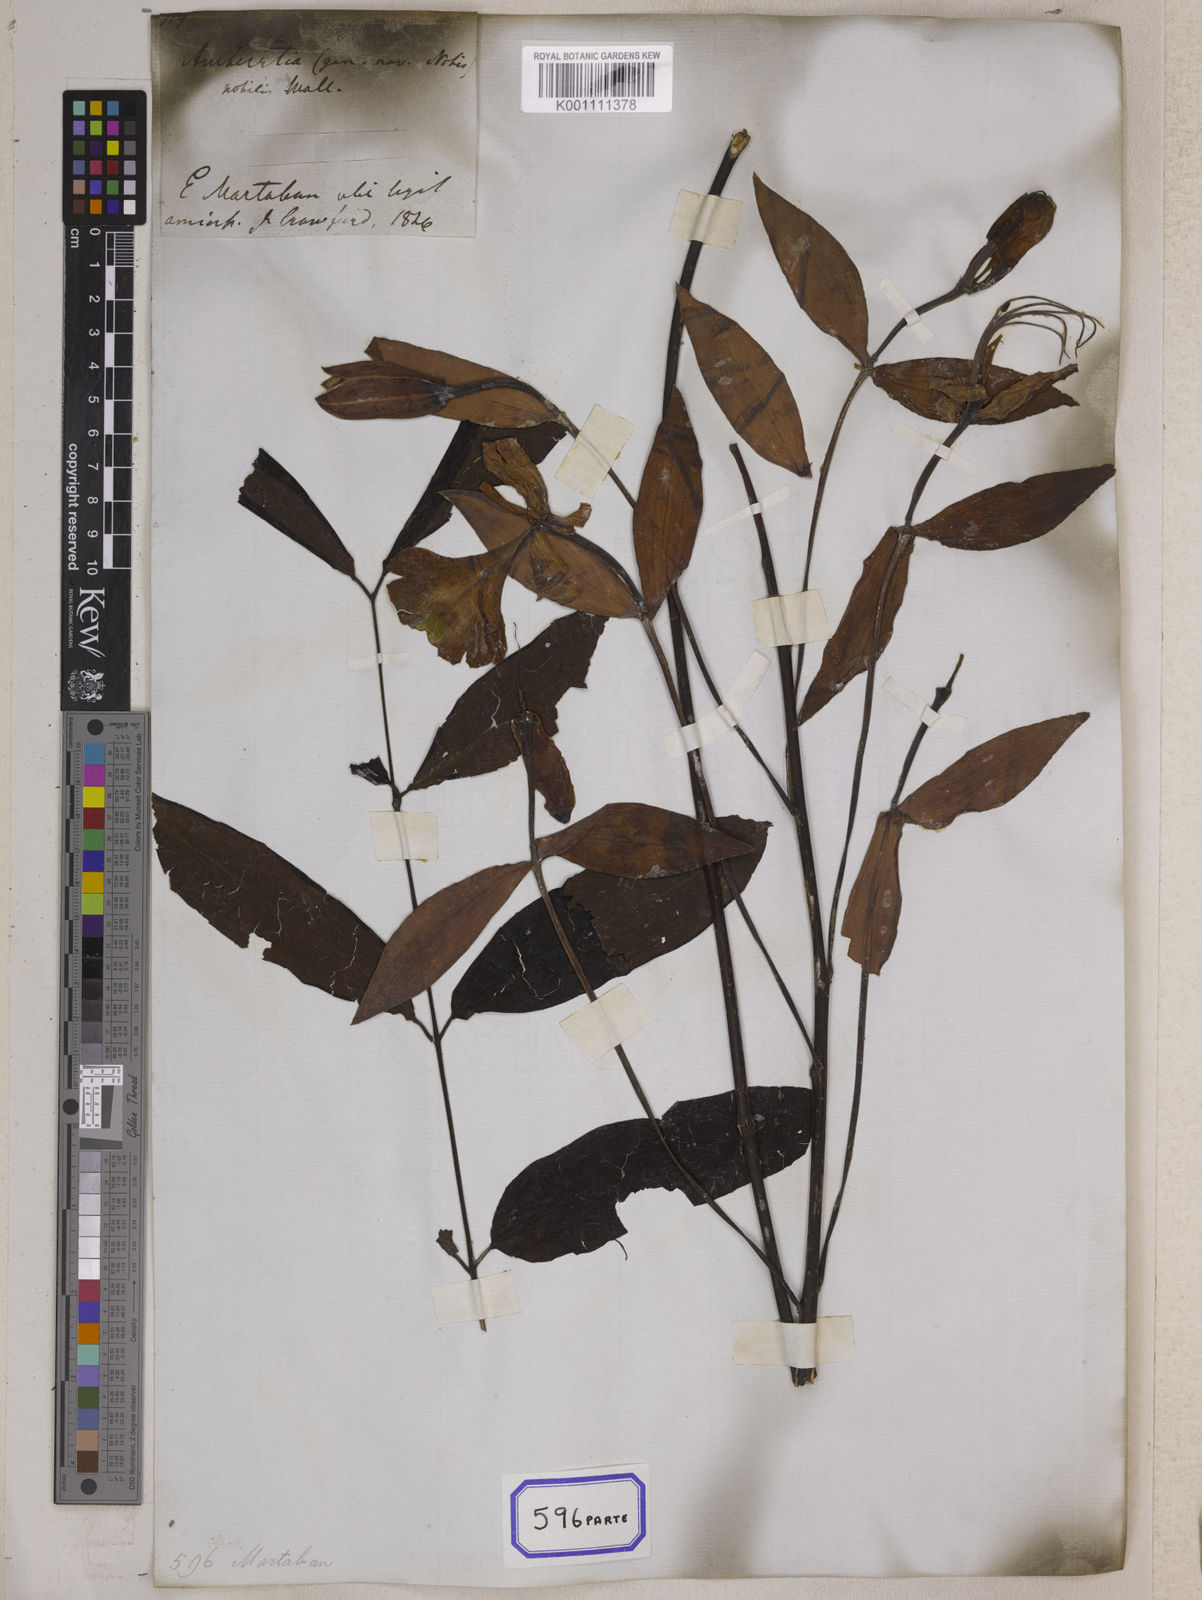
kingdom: Plantae
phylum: Tracheophyta
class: Magnoliopsida
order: Fabales
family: Fabaceae
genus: Amherstia
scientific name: Amherstia nobilis
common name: Pride-of-burma
